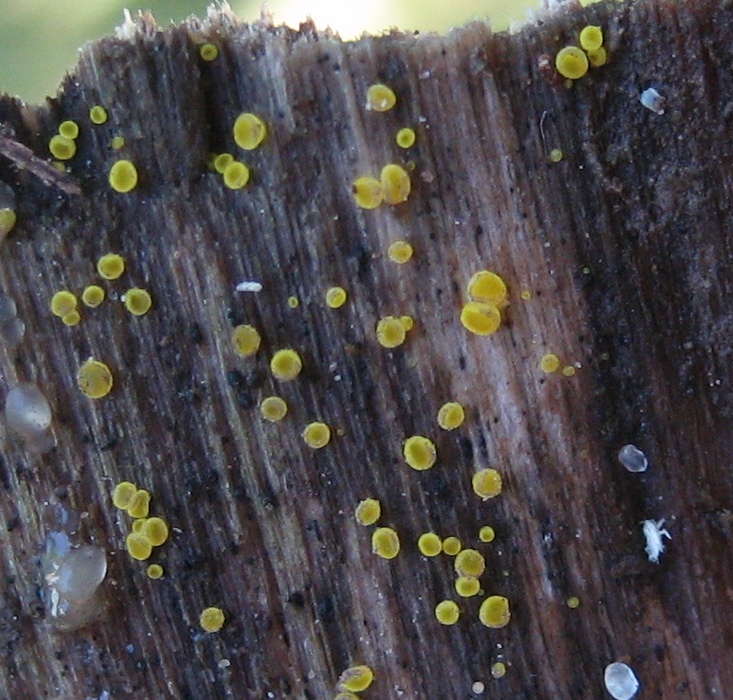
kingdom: Fungi
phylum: Ascomycota
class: Leotiomycetes
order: Helotiales
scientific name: Helotiales
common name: stilkskiveordenen
